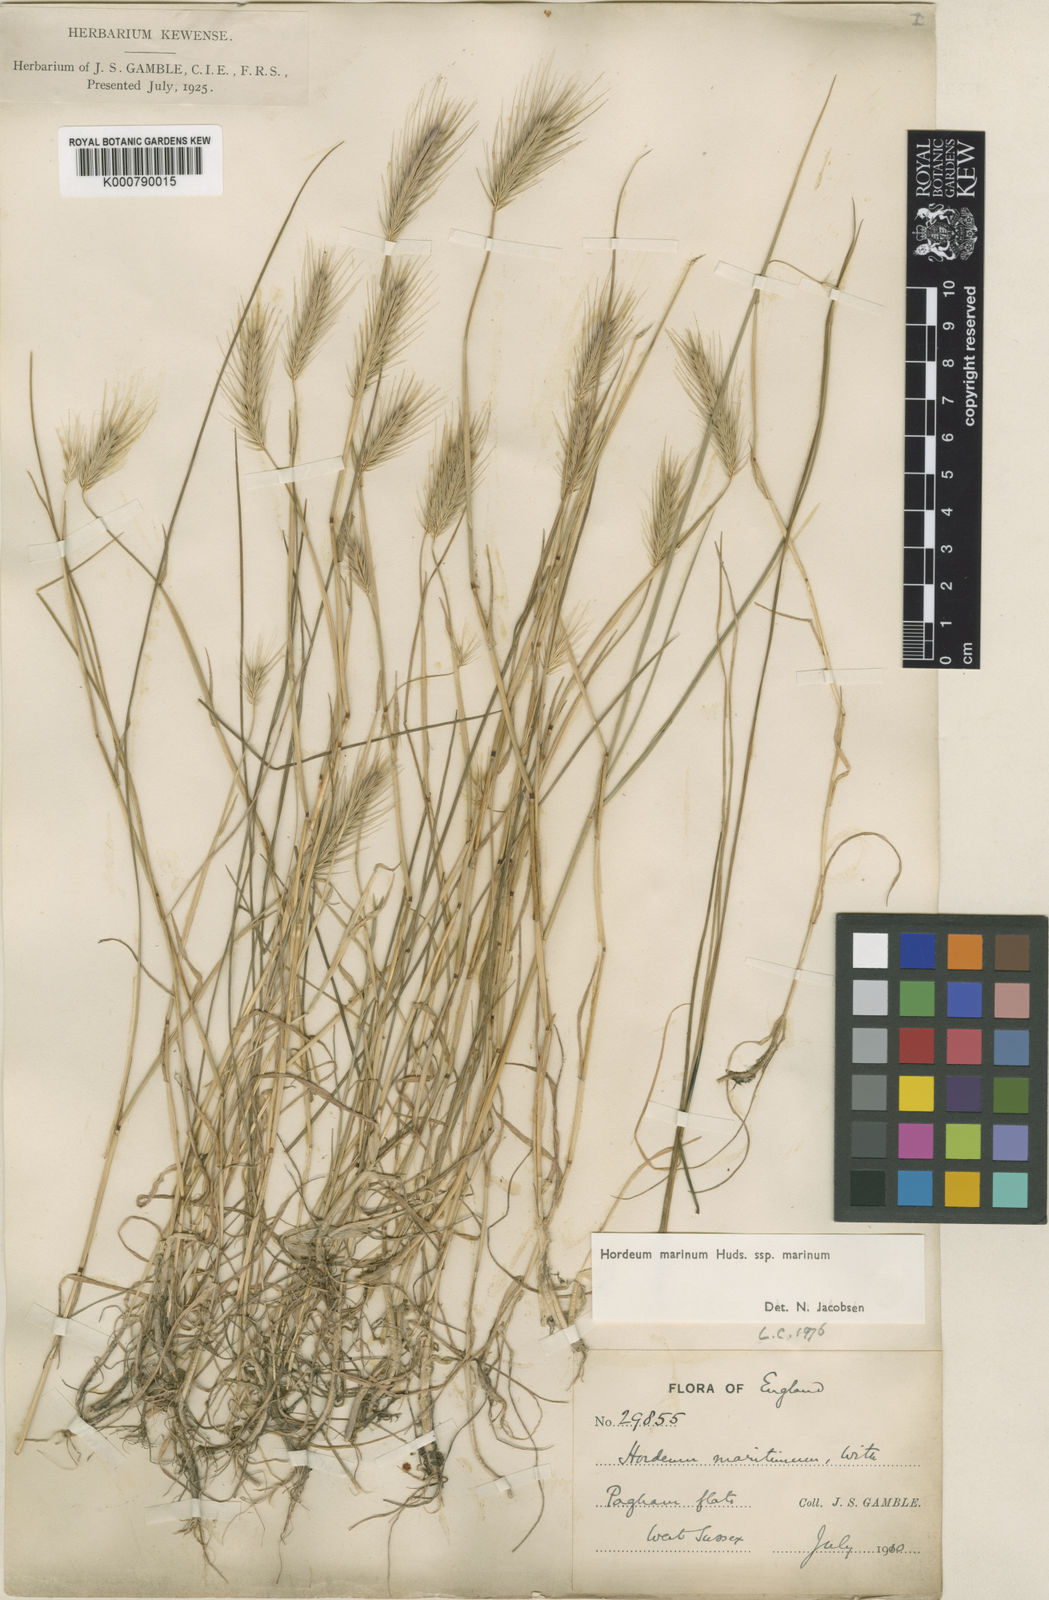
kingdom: Plantae
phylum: Tracheophyta
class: Liliopsida
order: Poales
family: Poaceae
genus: Hordeum
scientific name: Hordeum marinum
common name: Sea barley
